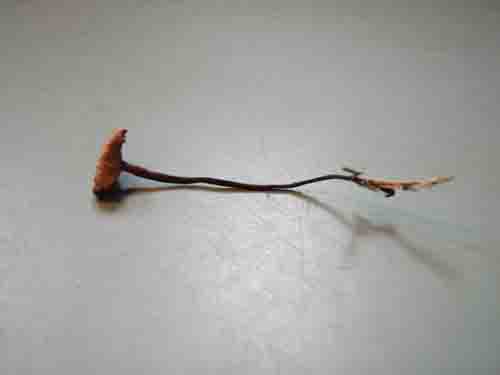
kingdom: Fungi
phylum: Basidiomycota
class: Agaricomycetes
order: Agaricales
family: Omphalotaceae
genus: Paragymnopus
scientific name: Paragymnopus perforans
